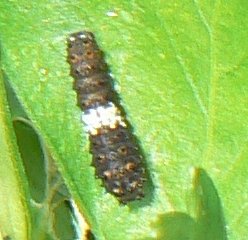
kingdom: Animalia
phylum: Arthropoda
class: Insecta
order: Lepidoptera
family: Papilionidae
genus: Papilio
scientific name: Papilio polyxenes
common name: Black Swallowtail
